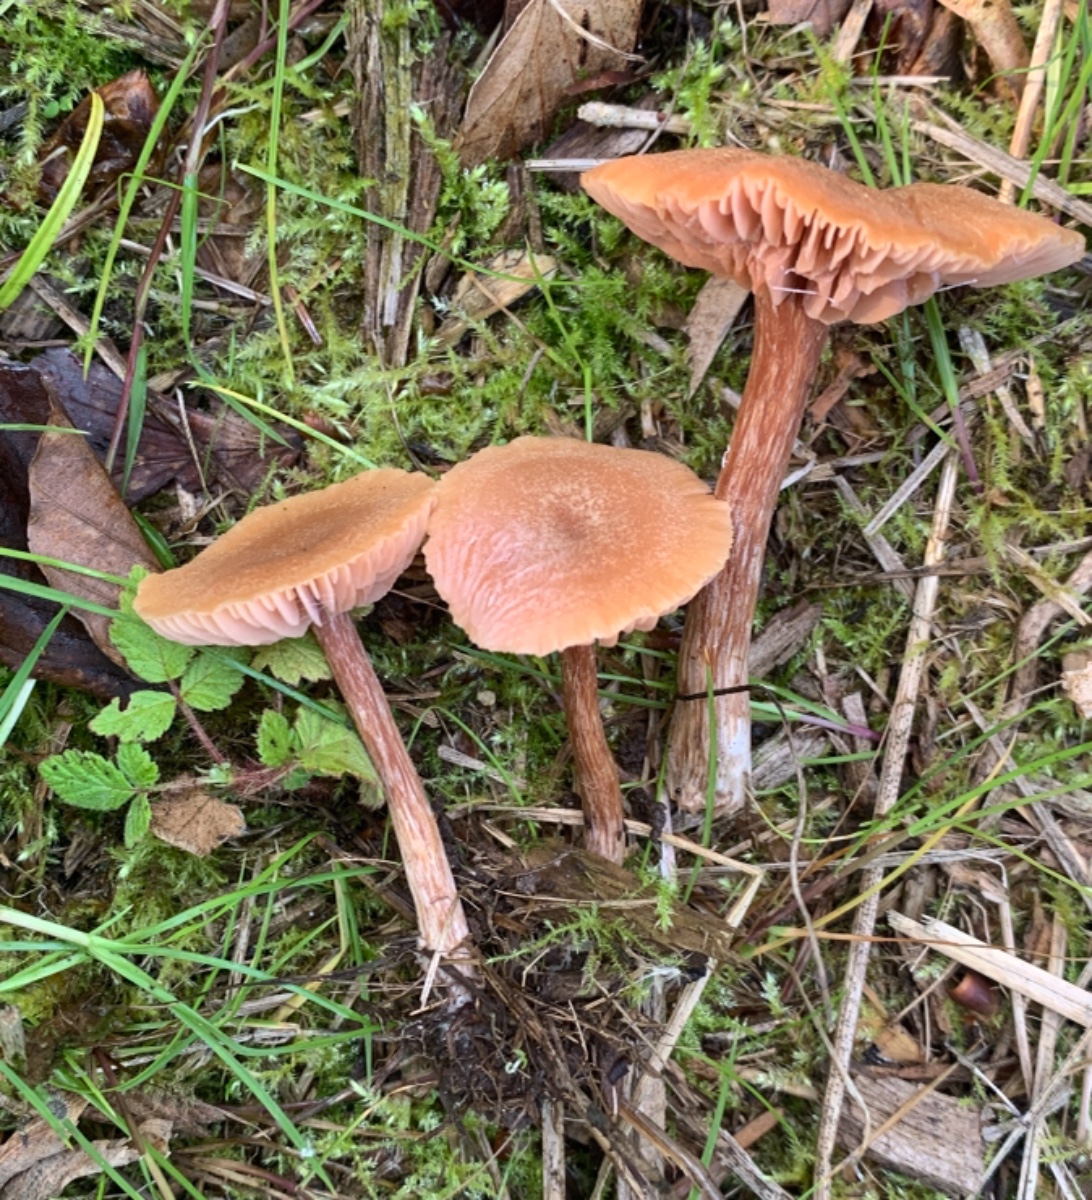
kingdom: Fungi
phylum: Basidiomycota
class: Agaricomycetes
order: Agaricales
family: Hydnangiaceae
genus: Laccaria
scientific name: Laccaria laccata
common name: rød ametysthat
